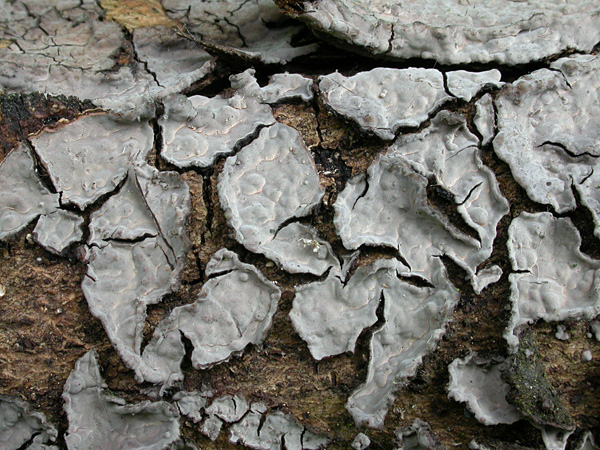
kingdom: Fungi
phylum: Basidiomycota
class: Agaricomycetes
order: Russulales
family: Peniophoraceae
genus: Peniophora
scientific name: Peniophora limitata
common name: mørkrandet voksskind
